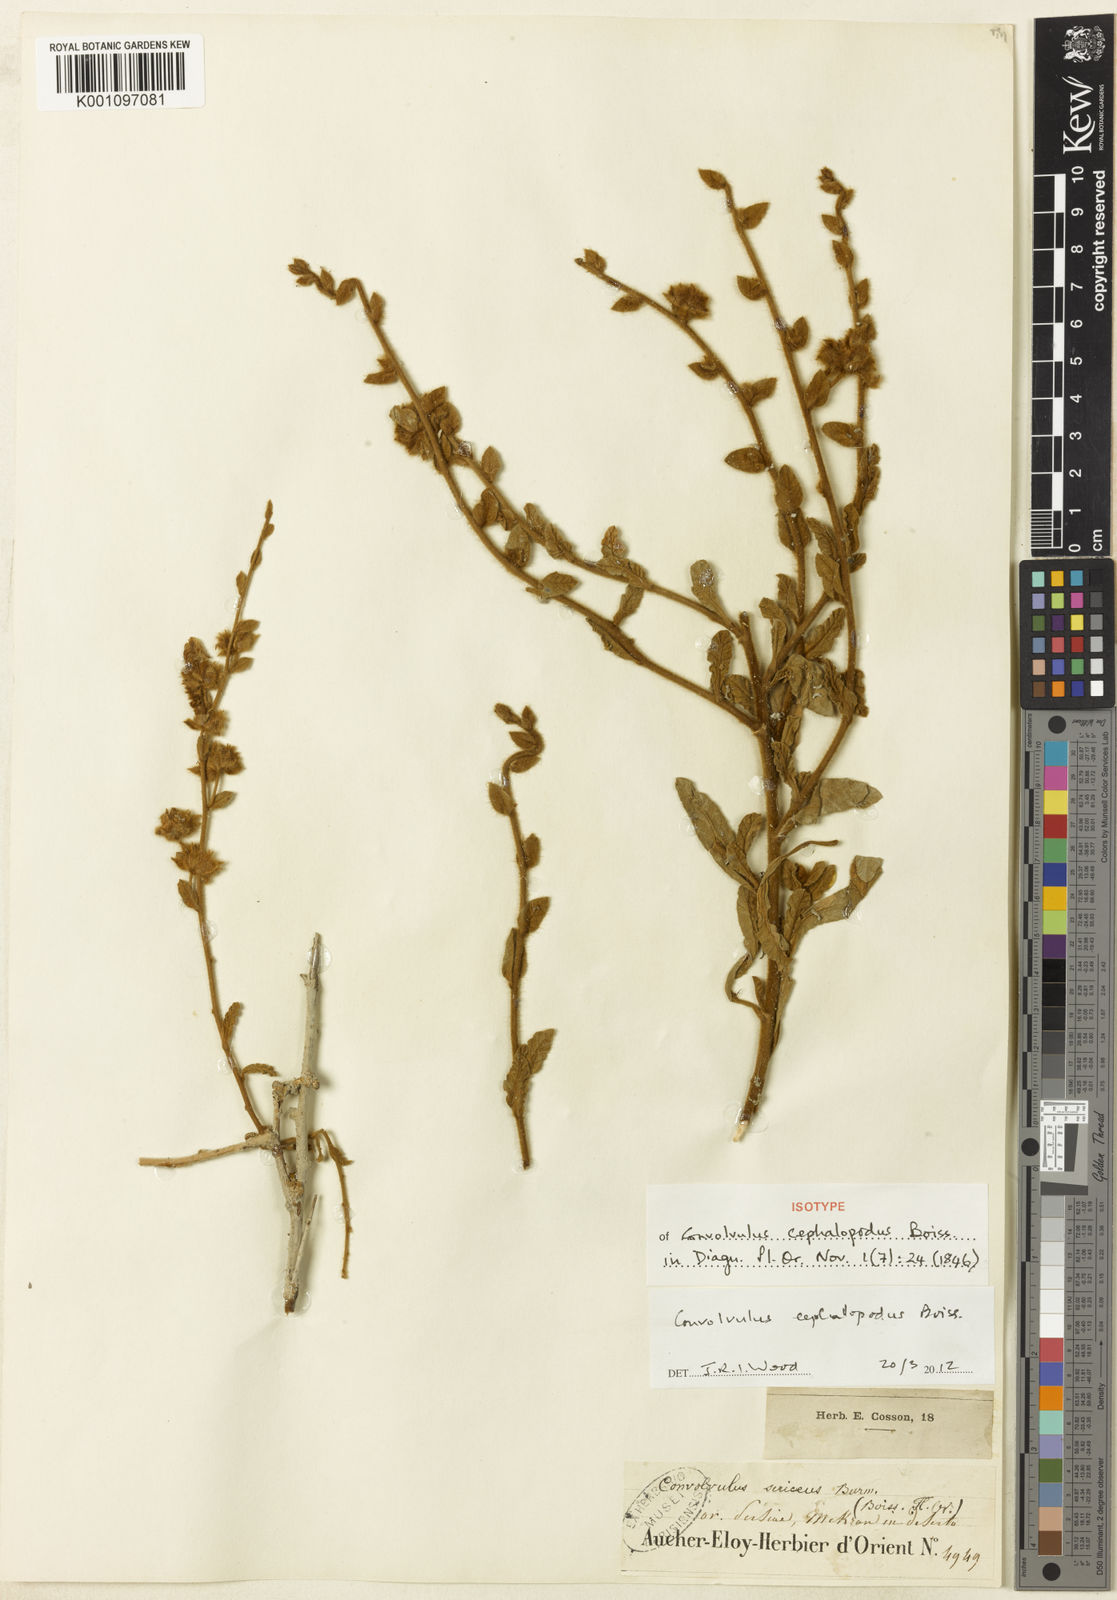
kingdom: Plantae
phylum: Tracheophyta
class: Magnoliopsida
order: Solanales
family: Convolvulaceae
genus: Convolvulus
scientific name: Convolvulus cephalopodus
